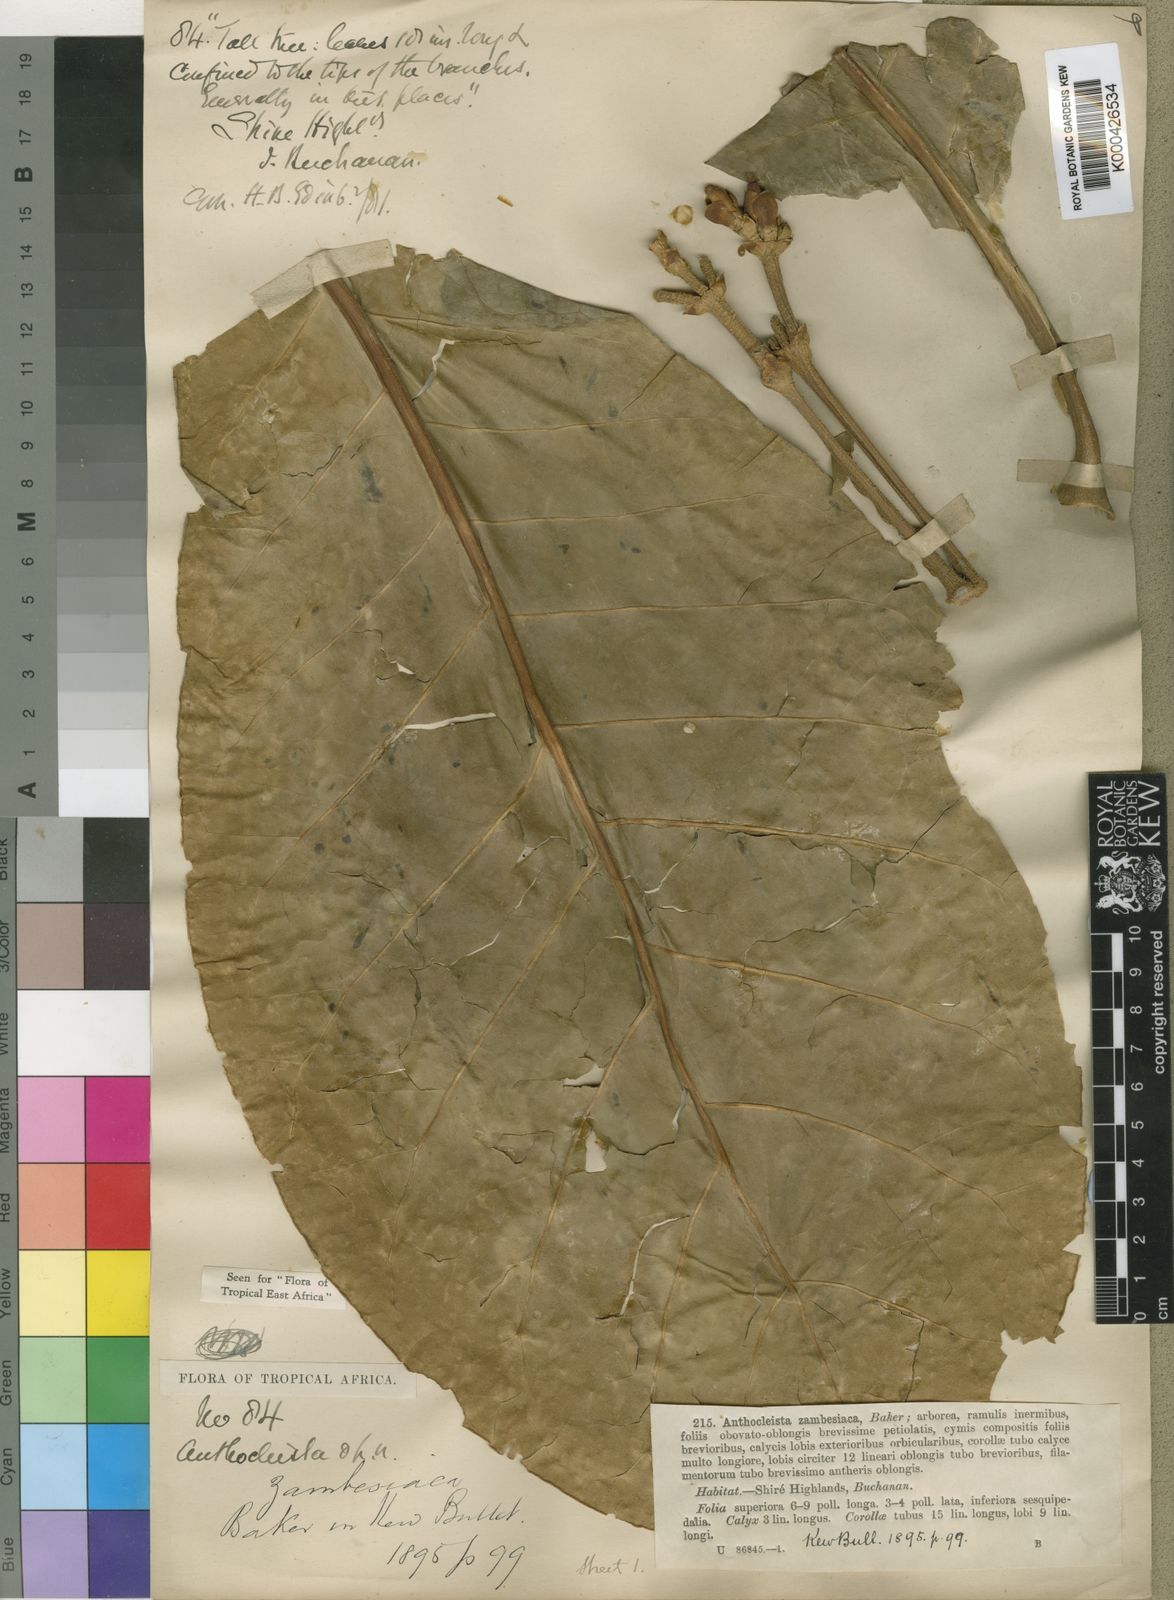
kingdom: Plantae
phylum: Tracheophyta
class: Magnoliopsida
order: Gentianales
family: Gentianaceae
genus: Anthocleista
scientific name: Anthocleista grandiflora
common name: Forest big-leaf
